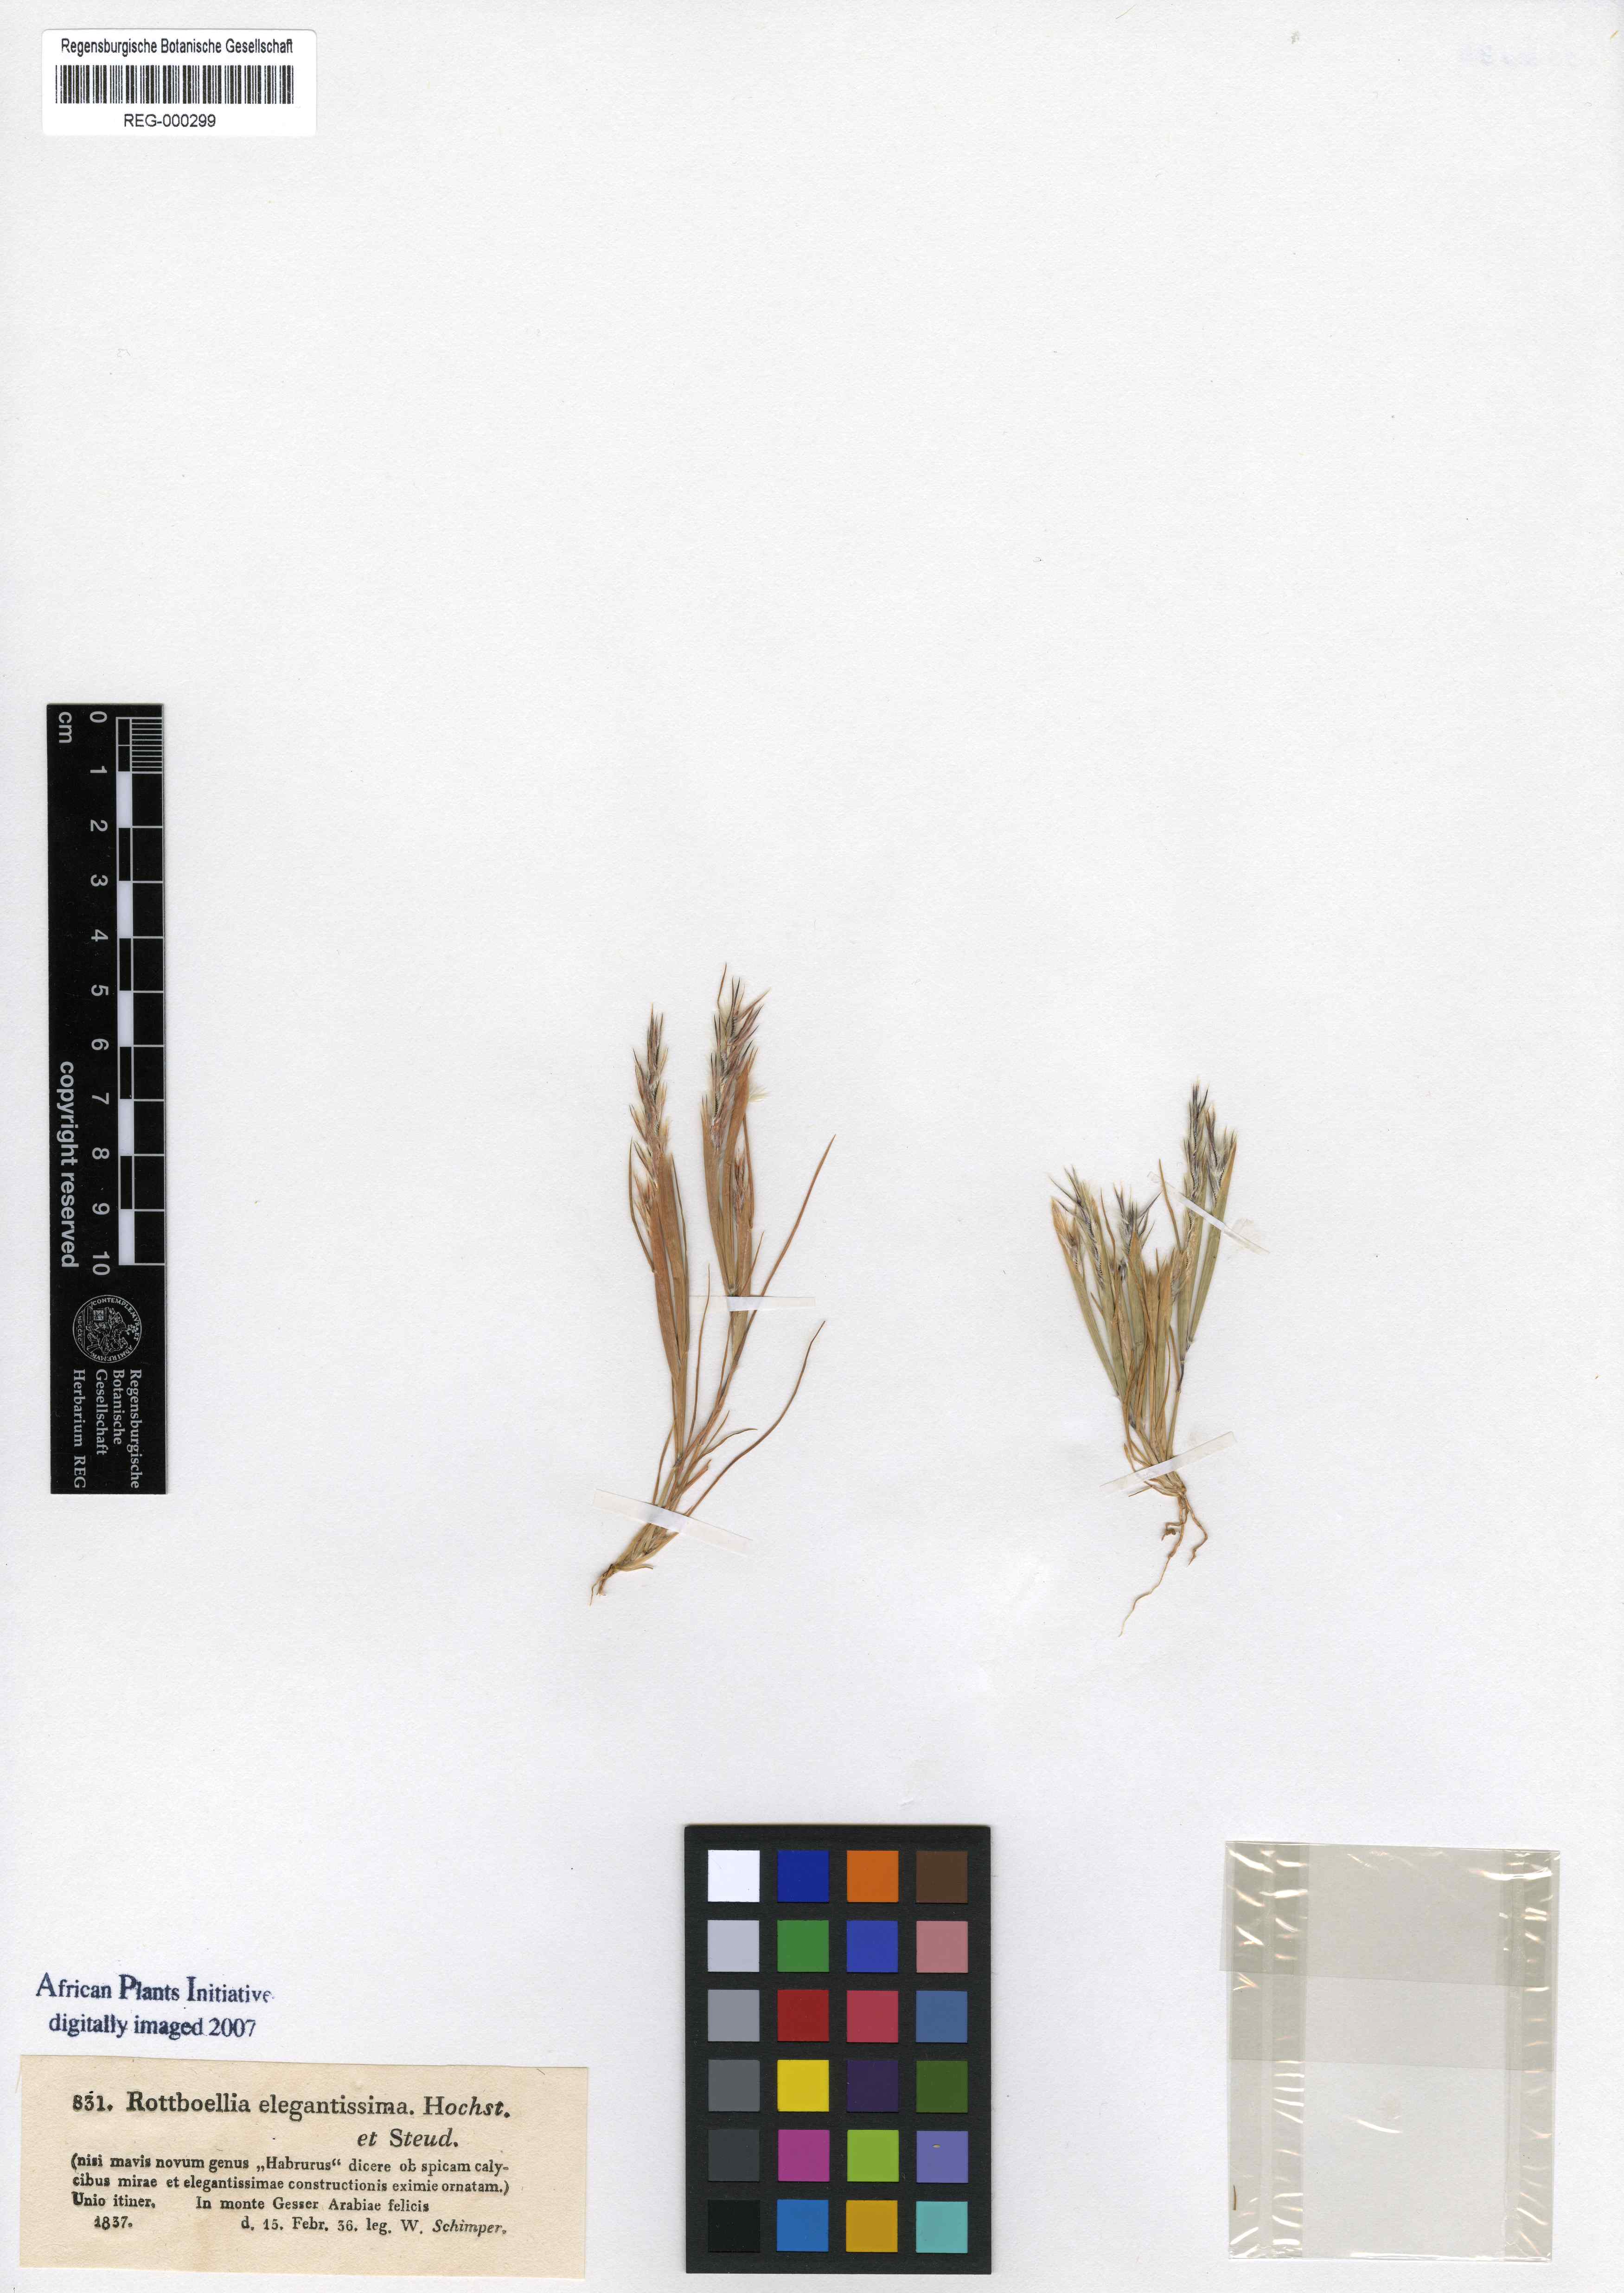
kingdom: Plantae
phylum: Tracheophyta
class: Liliopsida
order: Poales
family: Poaceae
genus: Elionurus
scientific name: Elionurus royleanus
